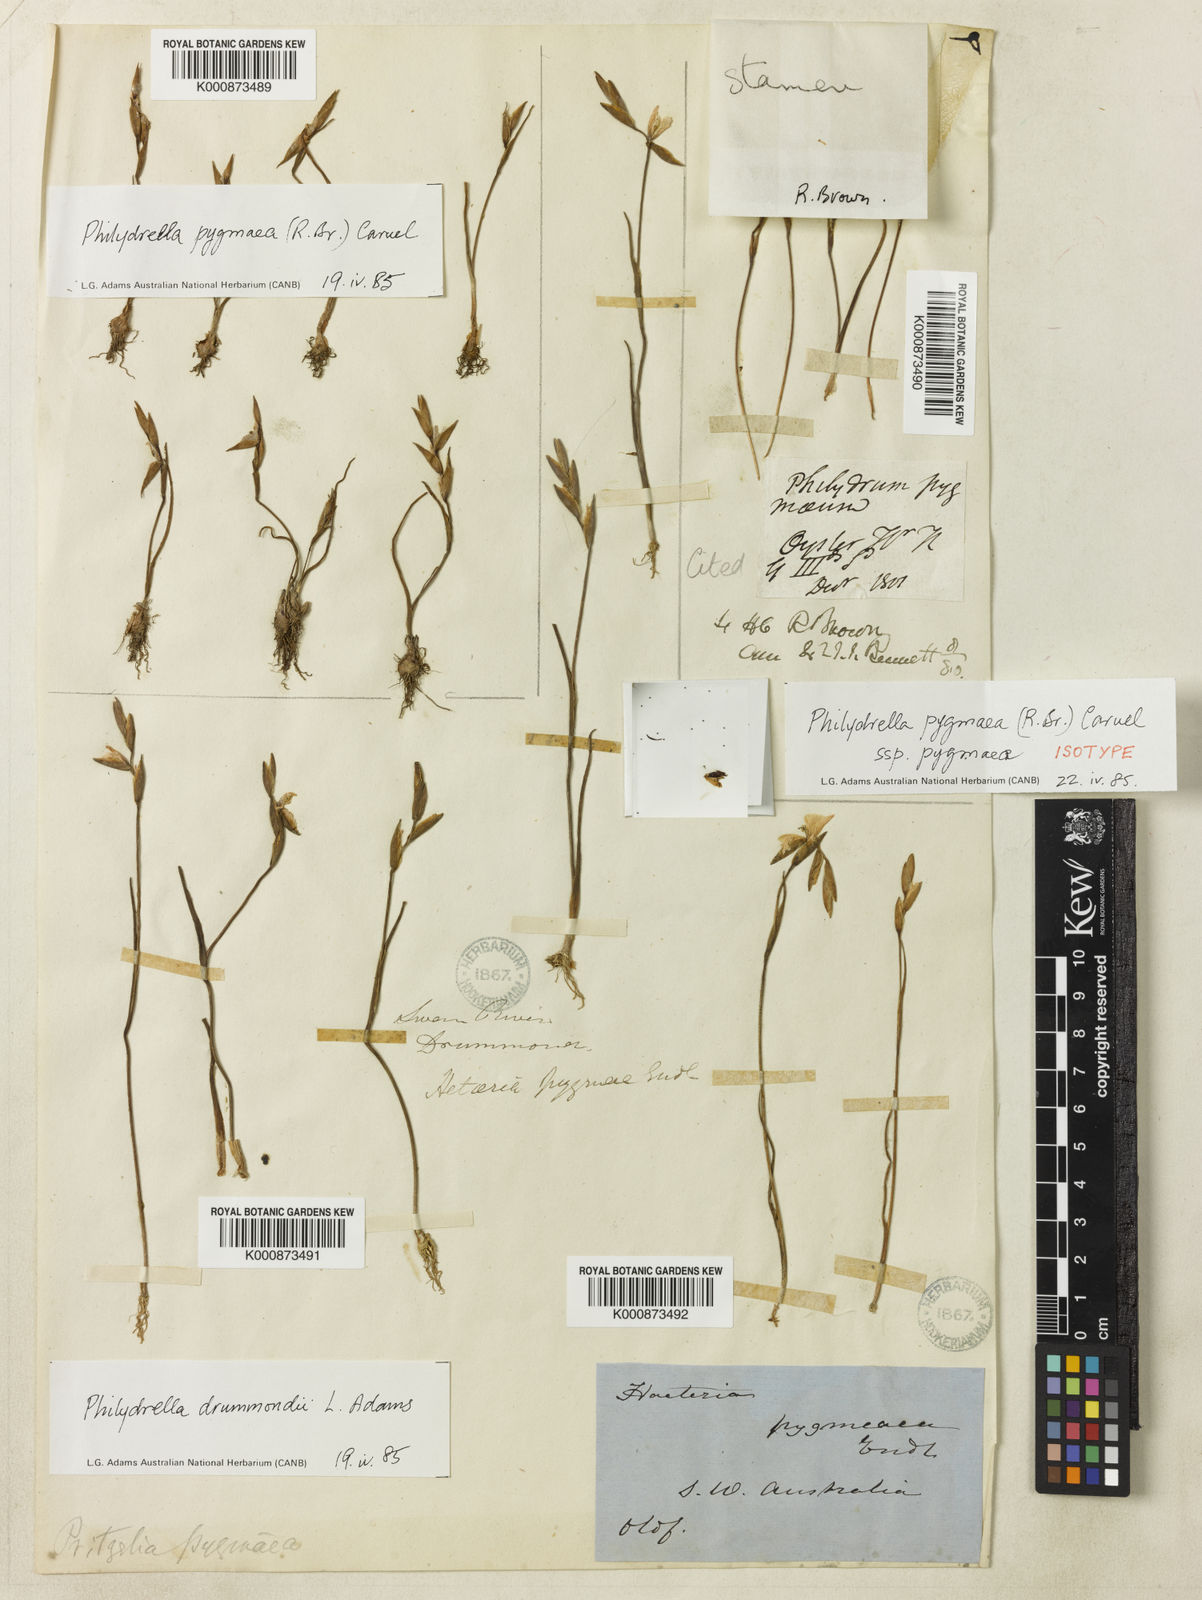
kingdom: Plantae
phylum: Tracheophyta
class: Liliopsida
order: Commelinales
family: Philydraceae
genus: Philydrella
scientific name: Philydrella pygmaea
